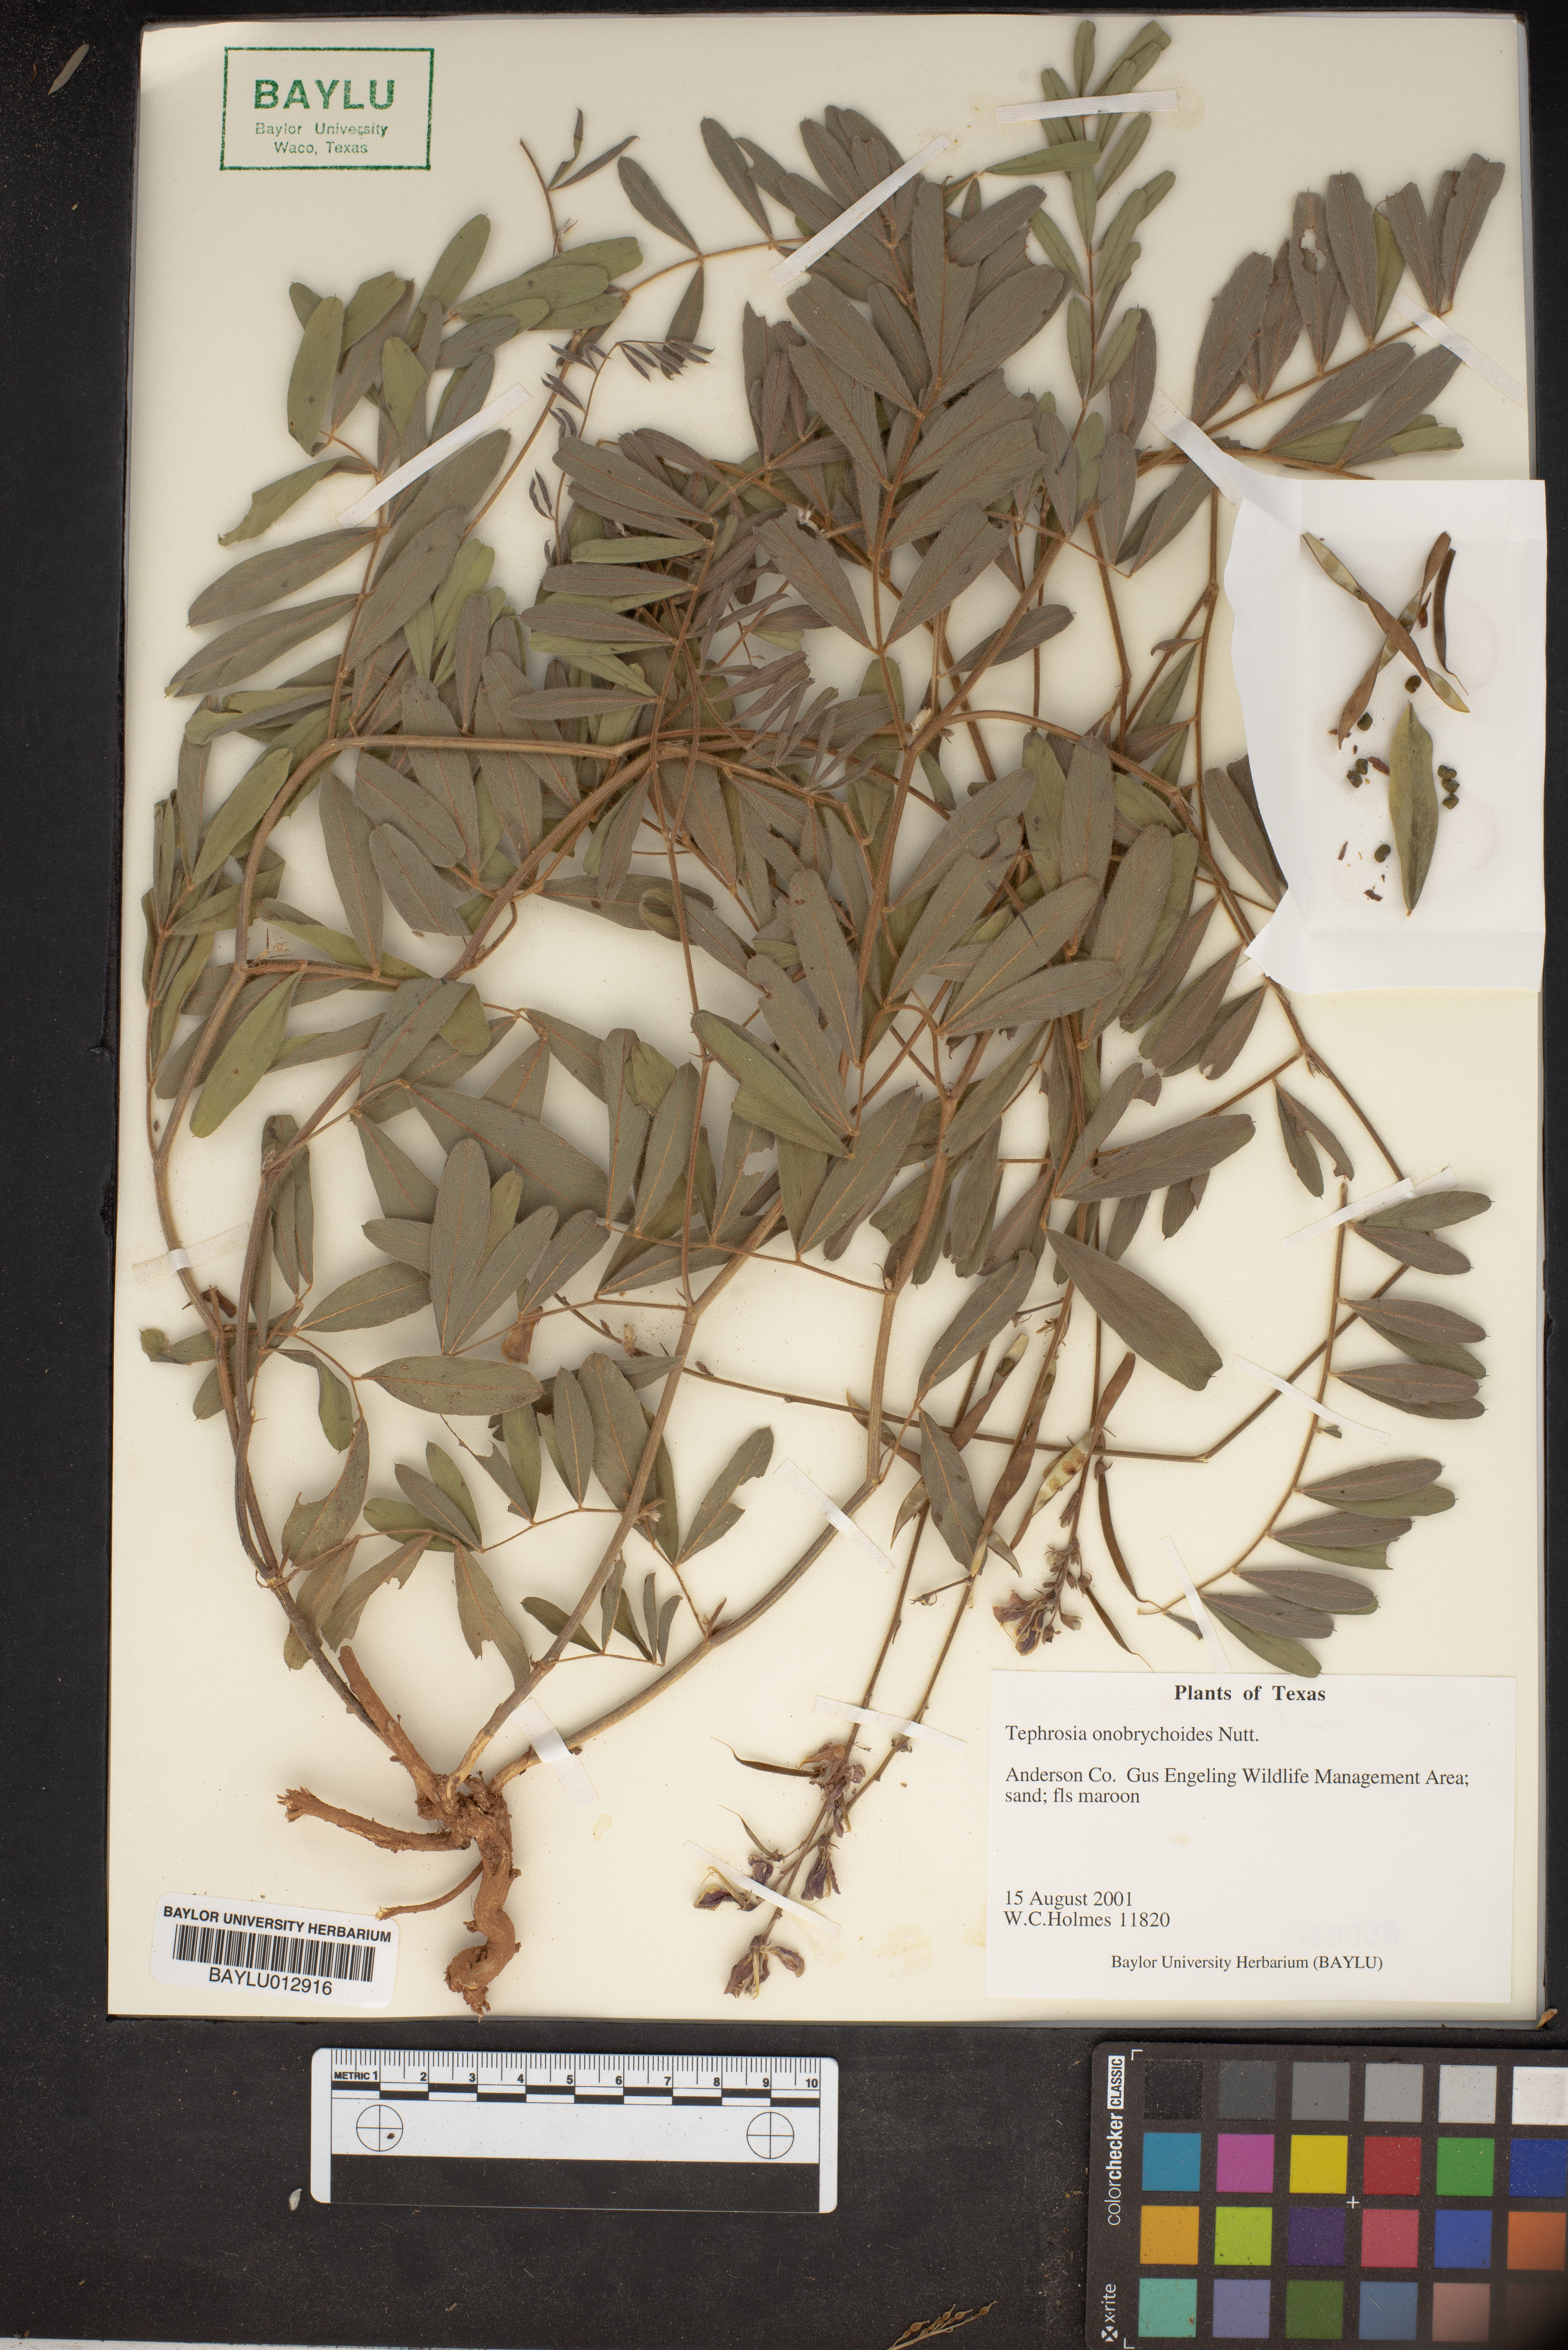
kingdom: Plantae
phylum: Tracheophyta
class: Magnoliopsida
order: Fabales
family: Fabaceae
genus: Tephrosia
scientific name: Tephrosia onobrychoides
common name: Multi-bloom hoary-pea
